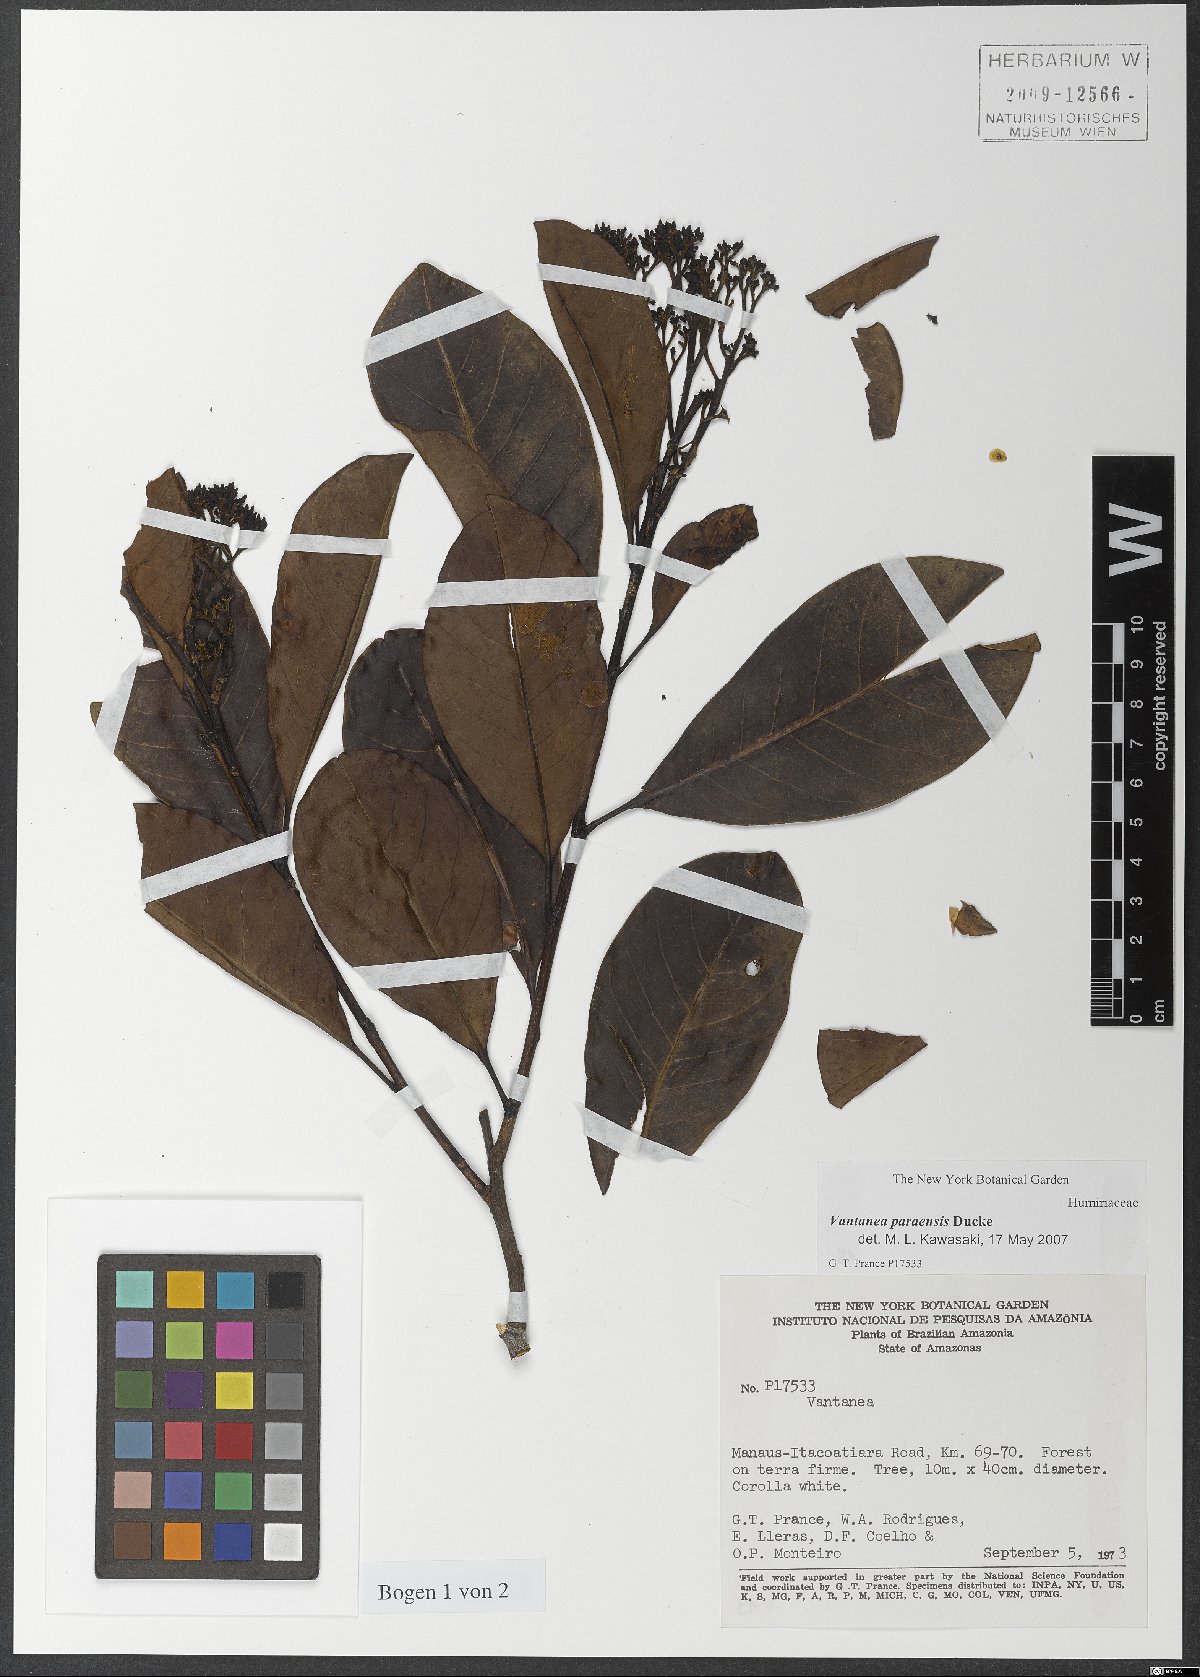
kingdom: Plantae
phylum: Tracheophyta
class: Magnoliopsida
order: Malpighiales
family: Humiriaceae
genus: Vantanea
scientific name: Vantanea paraensis
